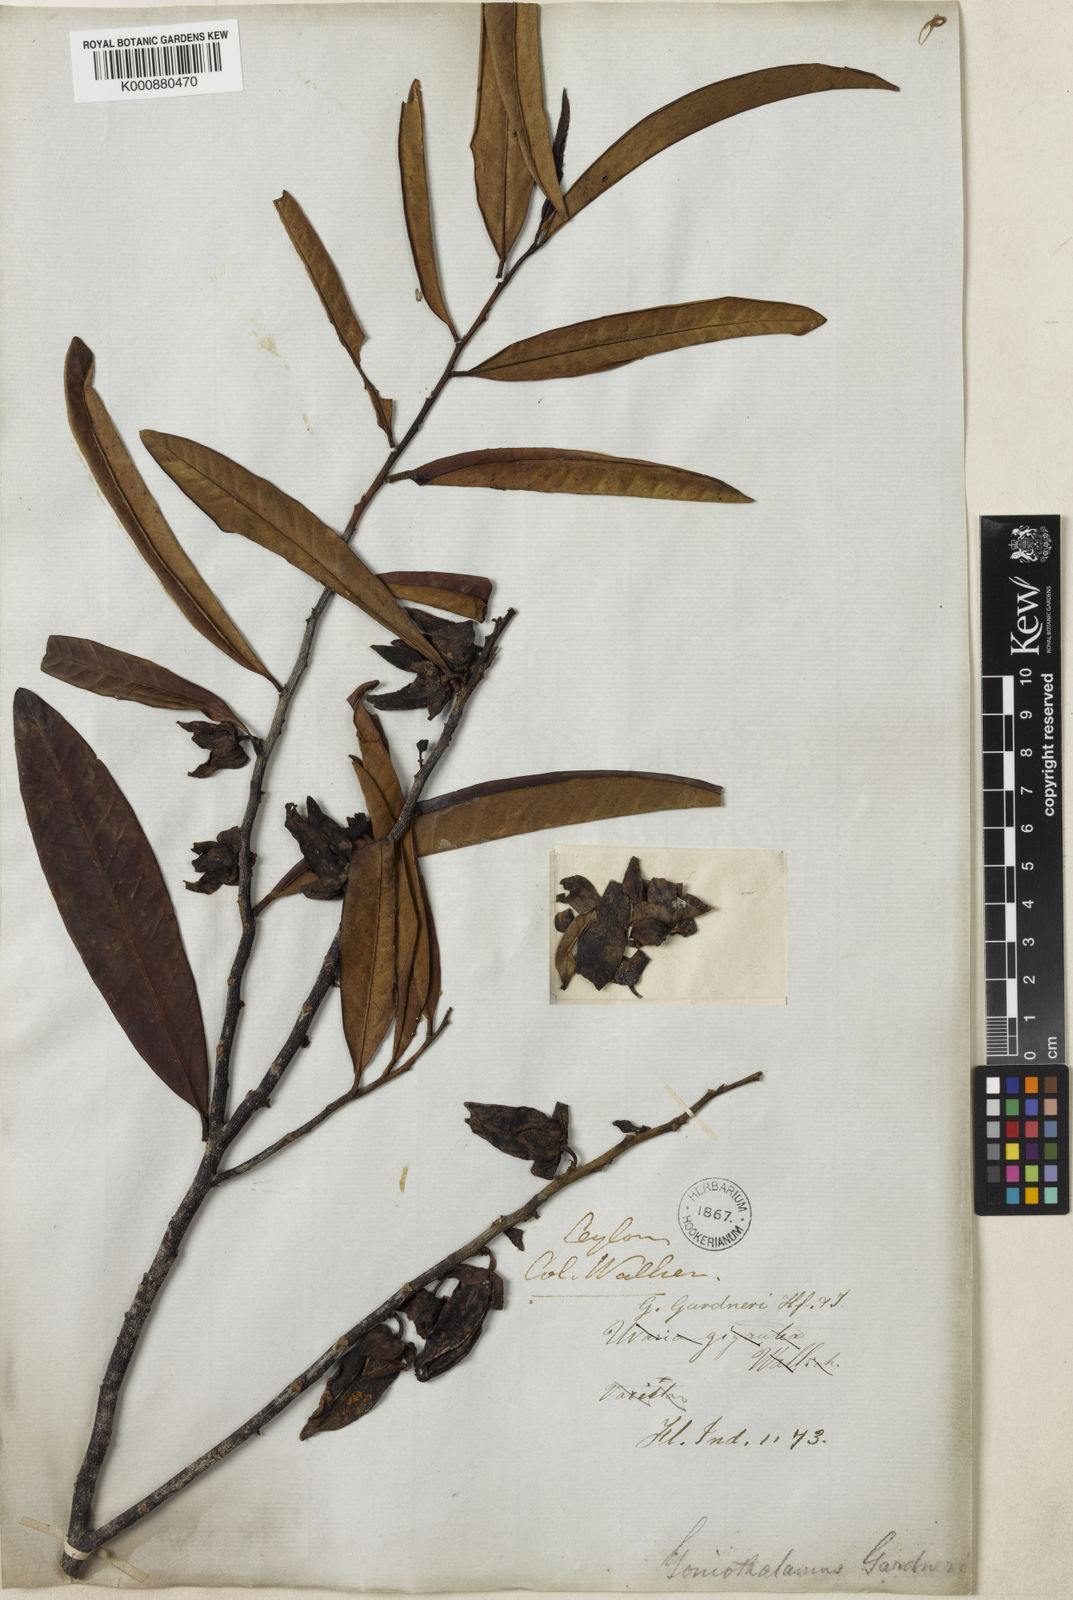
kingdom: Plantae
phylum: Tracheophyta
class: Magnoliopsida
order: Magnoliales
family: Annonaceae
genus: Goniothalamus
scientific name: Goniothalamus gardneri
